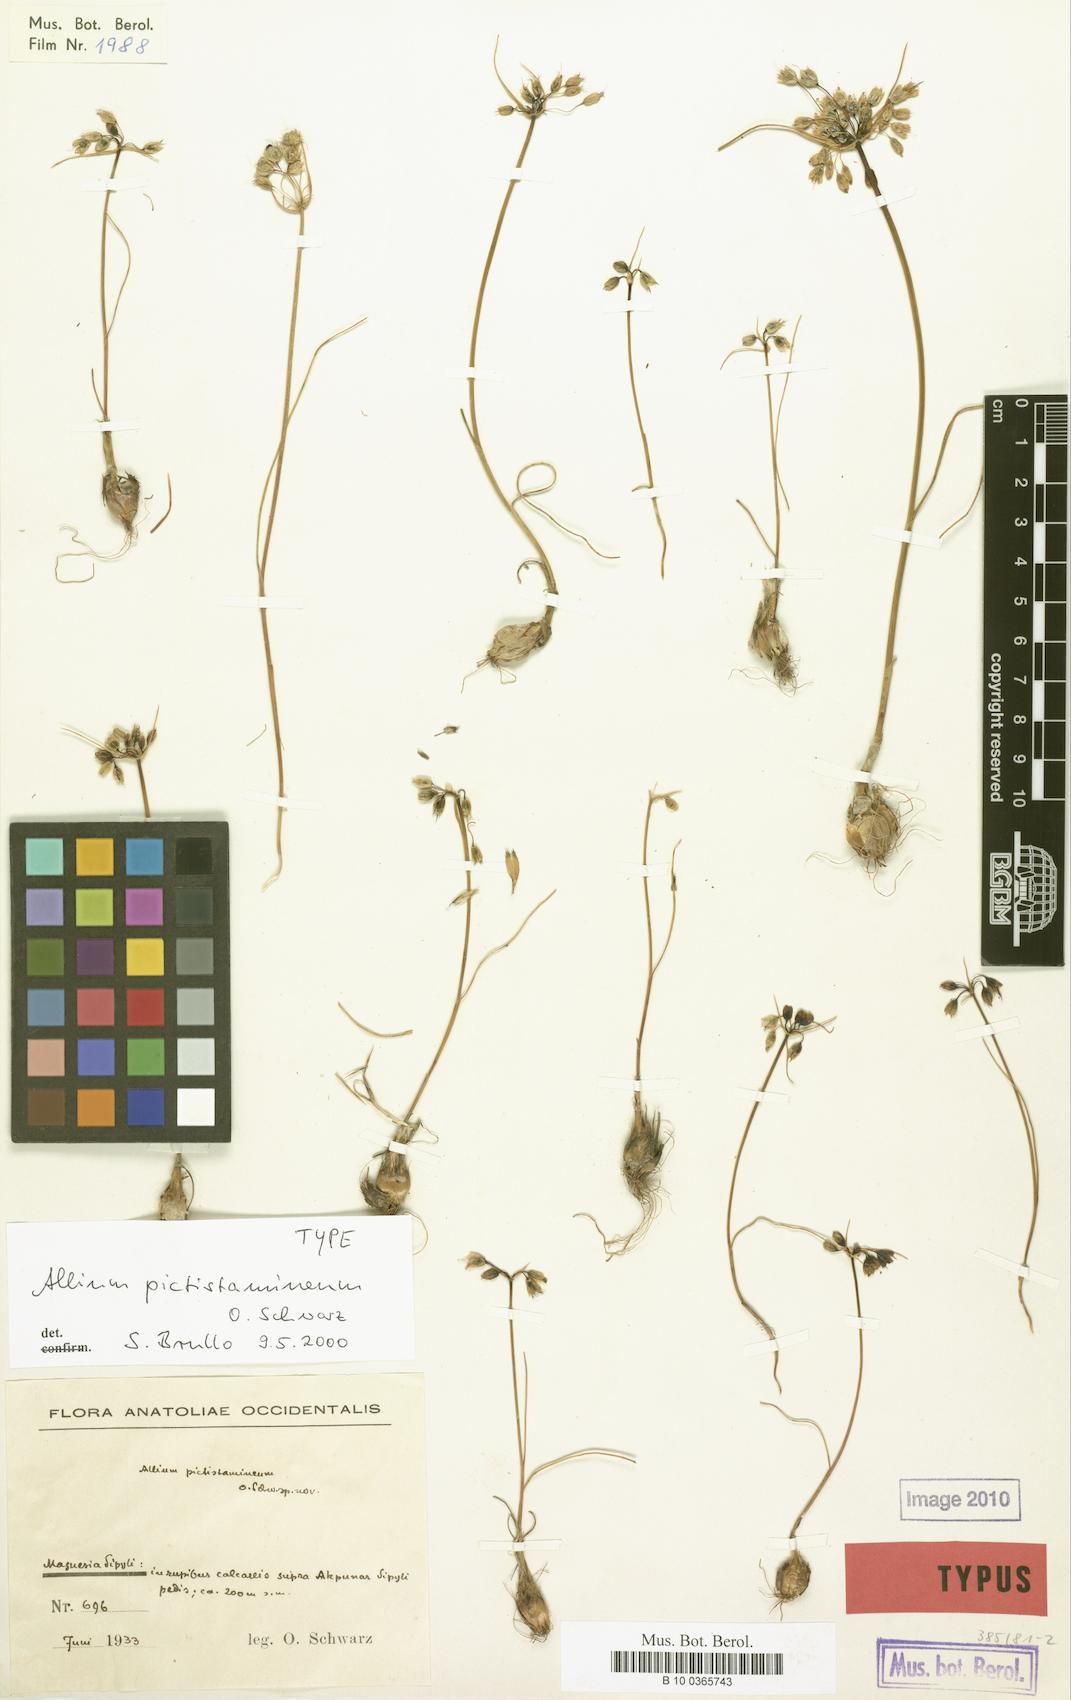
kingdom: Plantae
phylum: Tracheophyta
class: Liliopsida
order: Asparagales
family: Amaryllidaceae
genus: Allium
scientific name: Allium paniculatum
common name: Pale garlic
